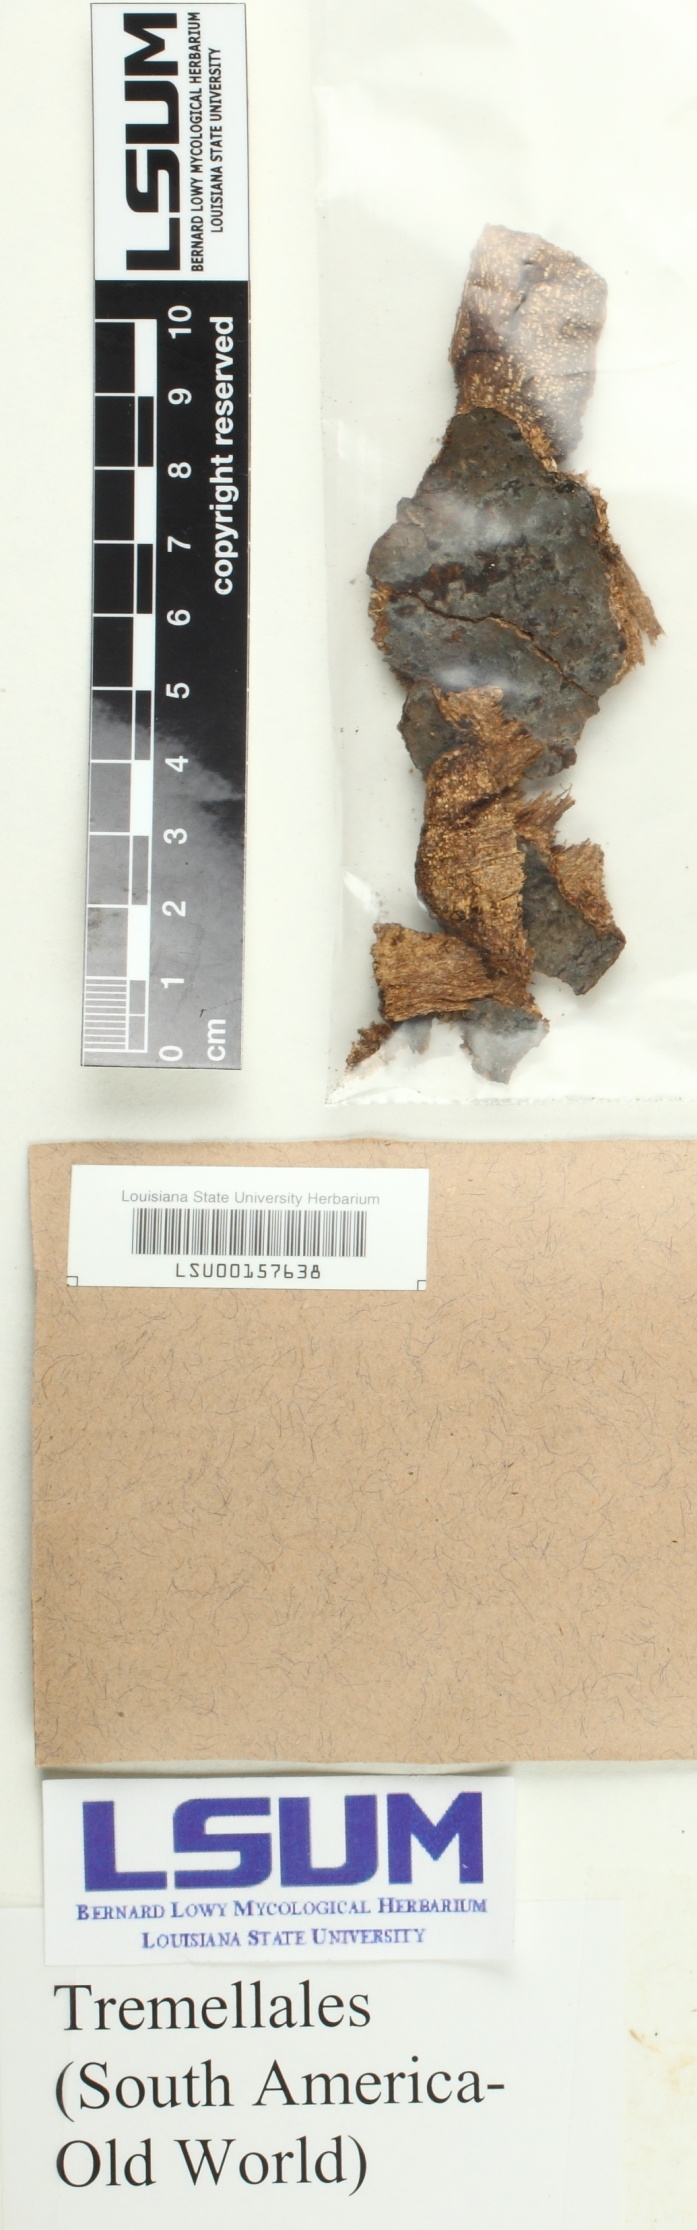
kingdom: Fungi
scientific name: Fungi
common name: Fungi
